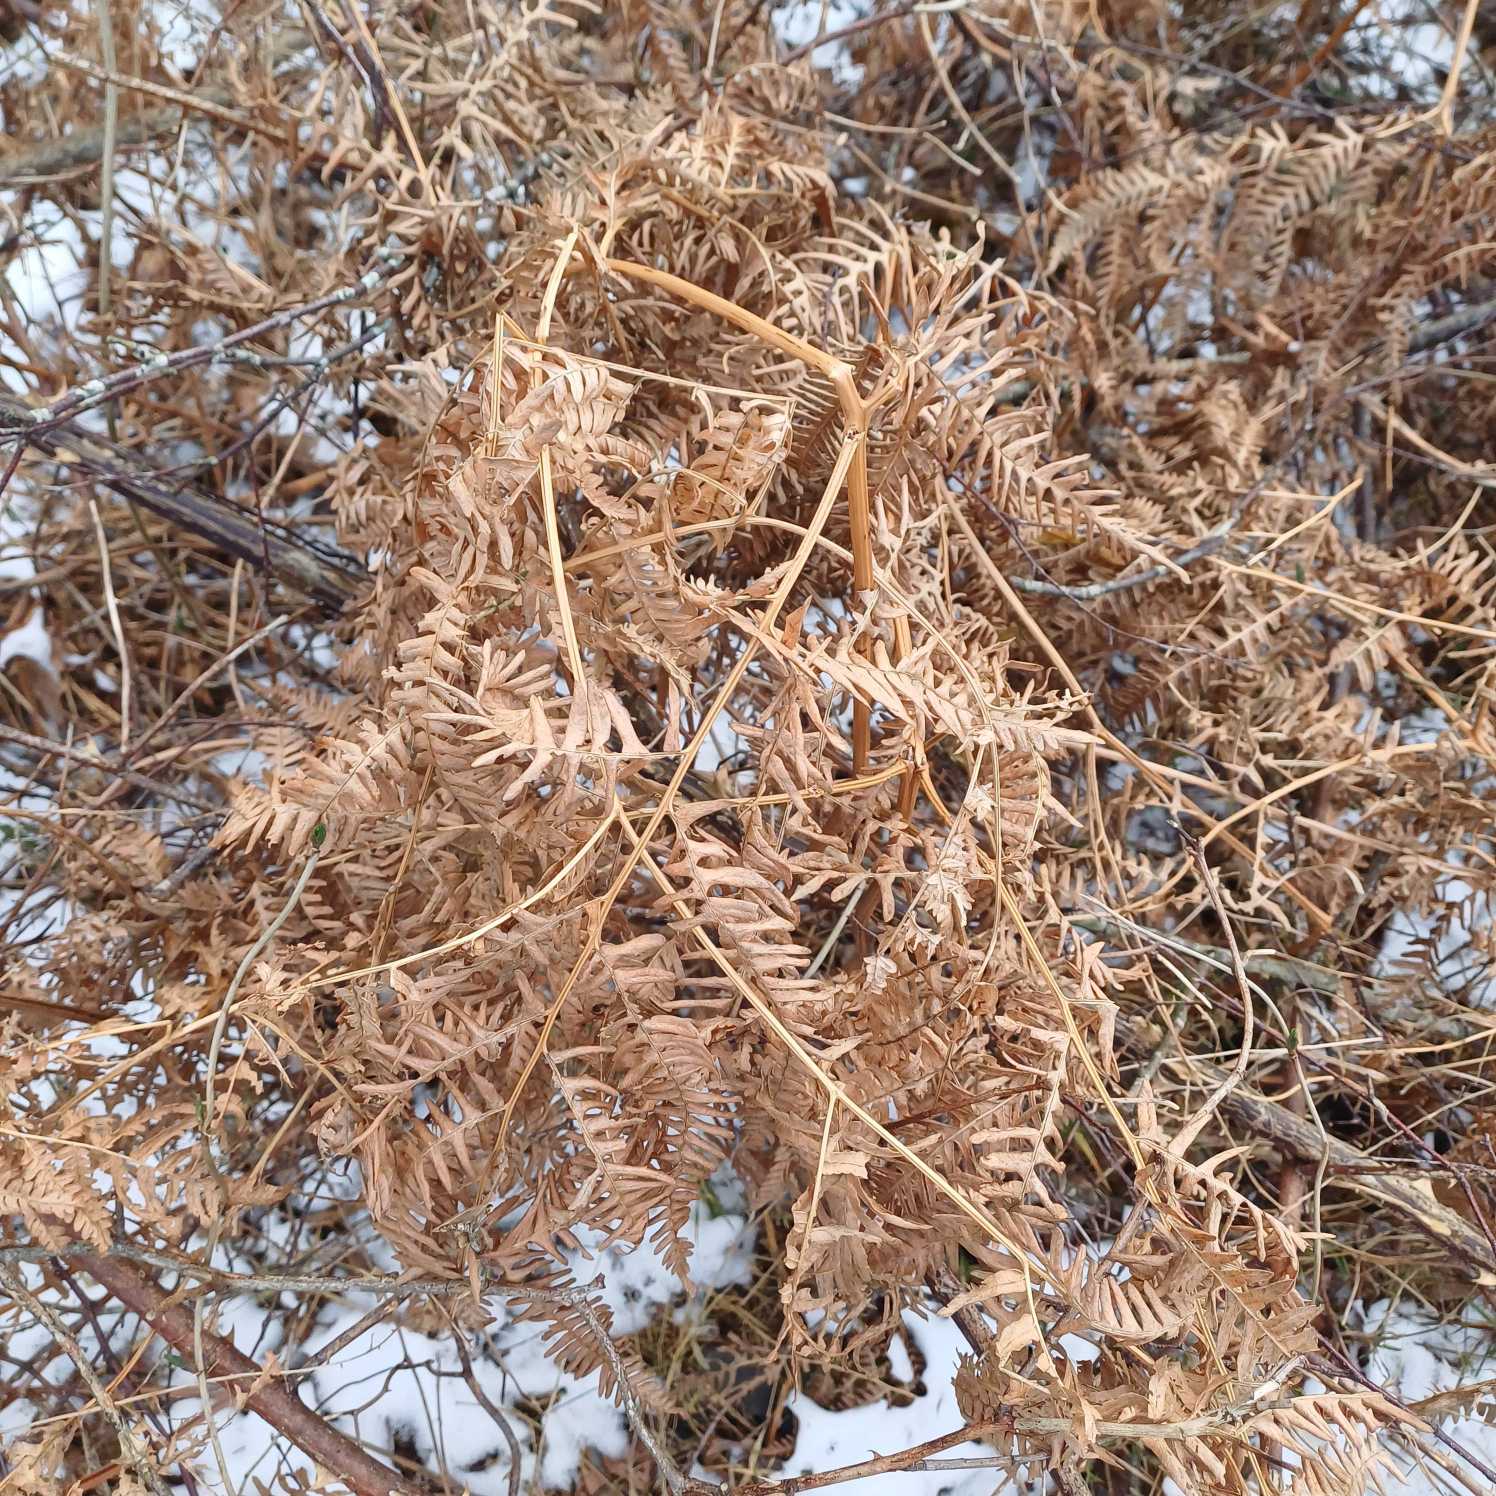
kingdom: Plantae
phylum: Tracheophyta
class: Polypodiopsida
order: Polypodiales
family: Dennstaedtiaceae
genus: Pteridium
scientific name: Pteridium aquilinum
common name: Ørnebregne
